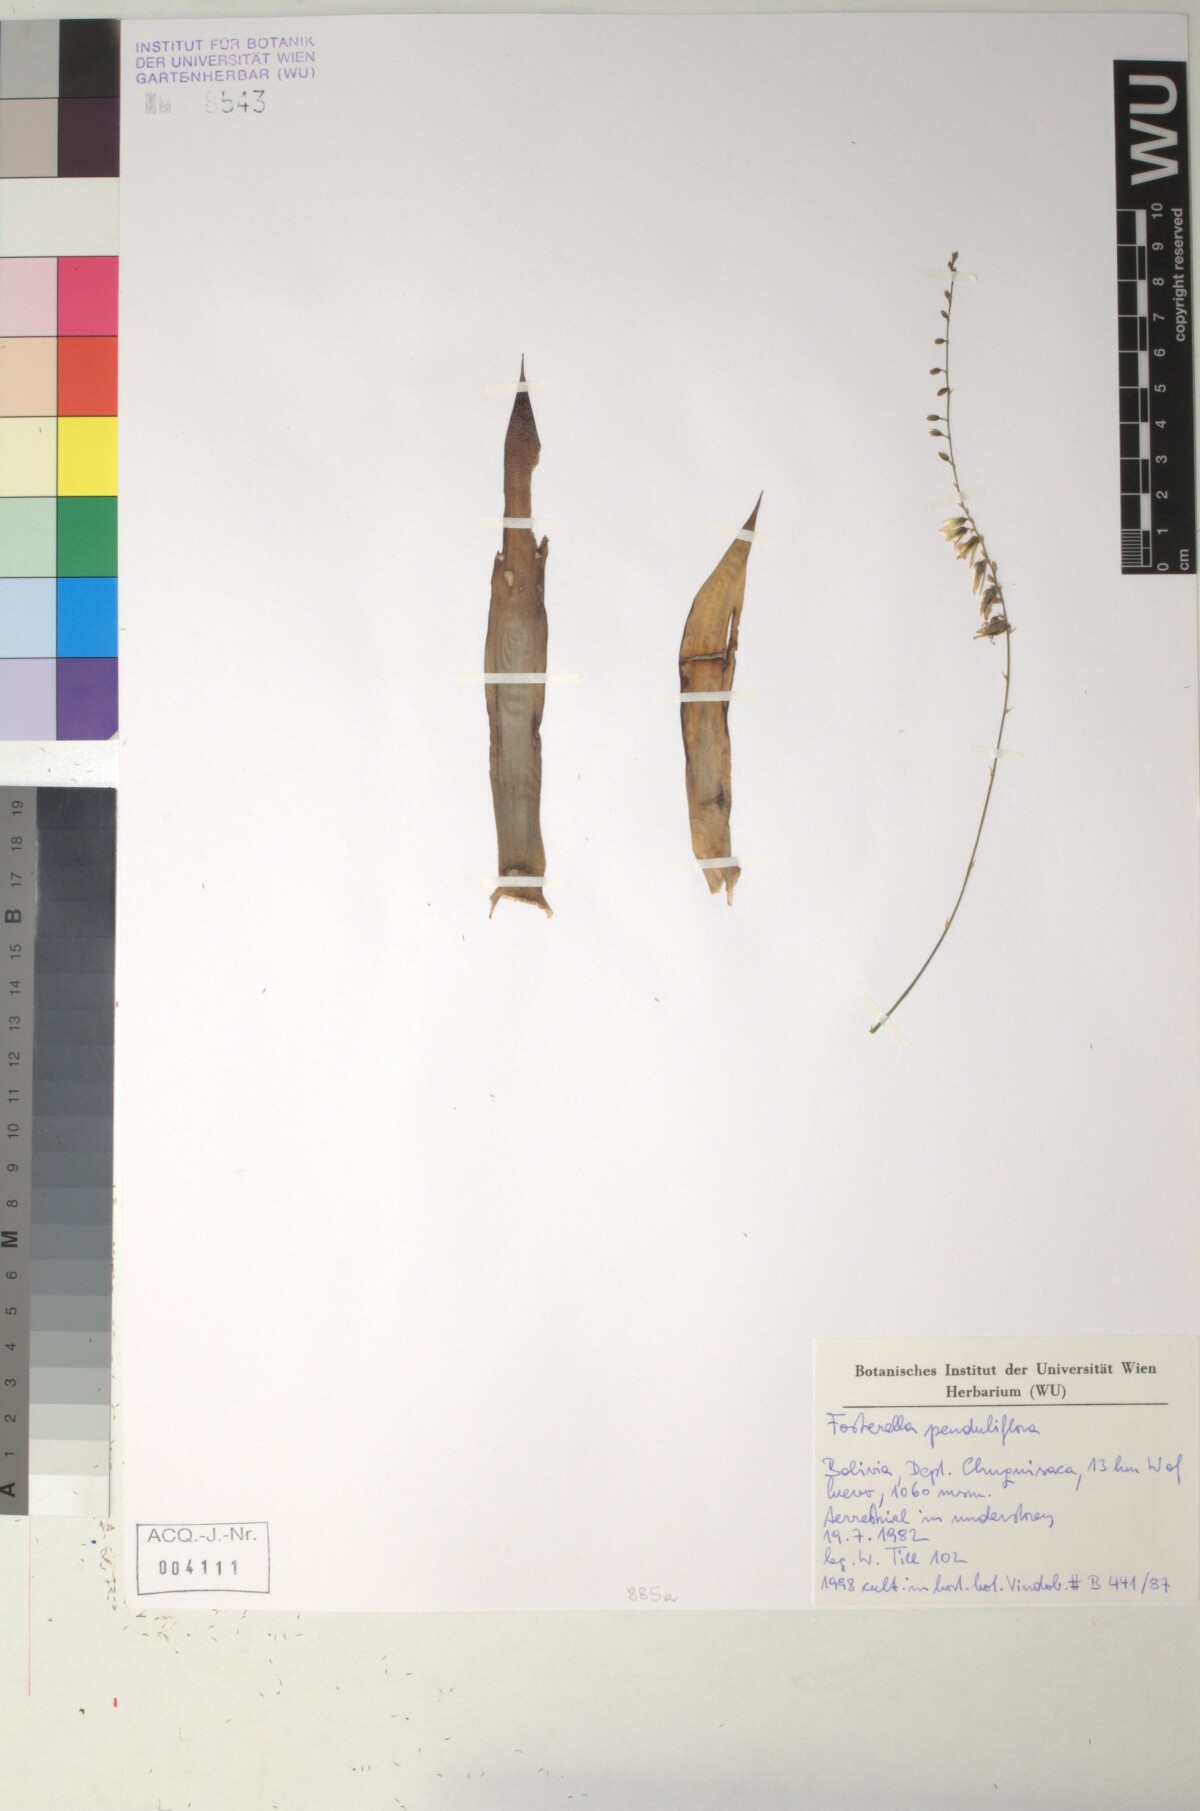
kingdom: Plantae
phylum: Tracheophyta
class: Liliopsida
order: Poales
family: Bromeliaceae
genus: Fosterella
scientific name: Fosterella penduliflora
